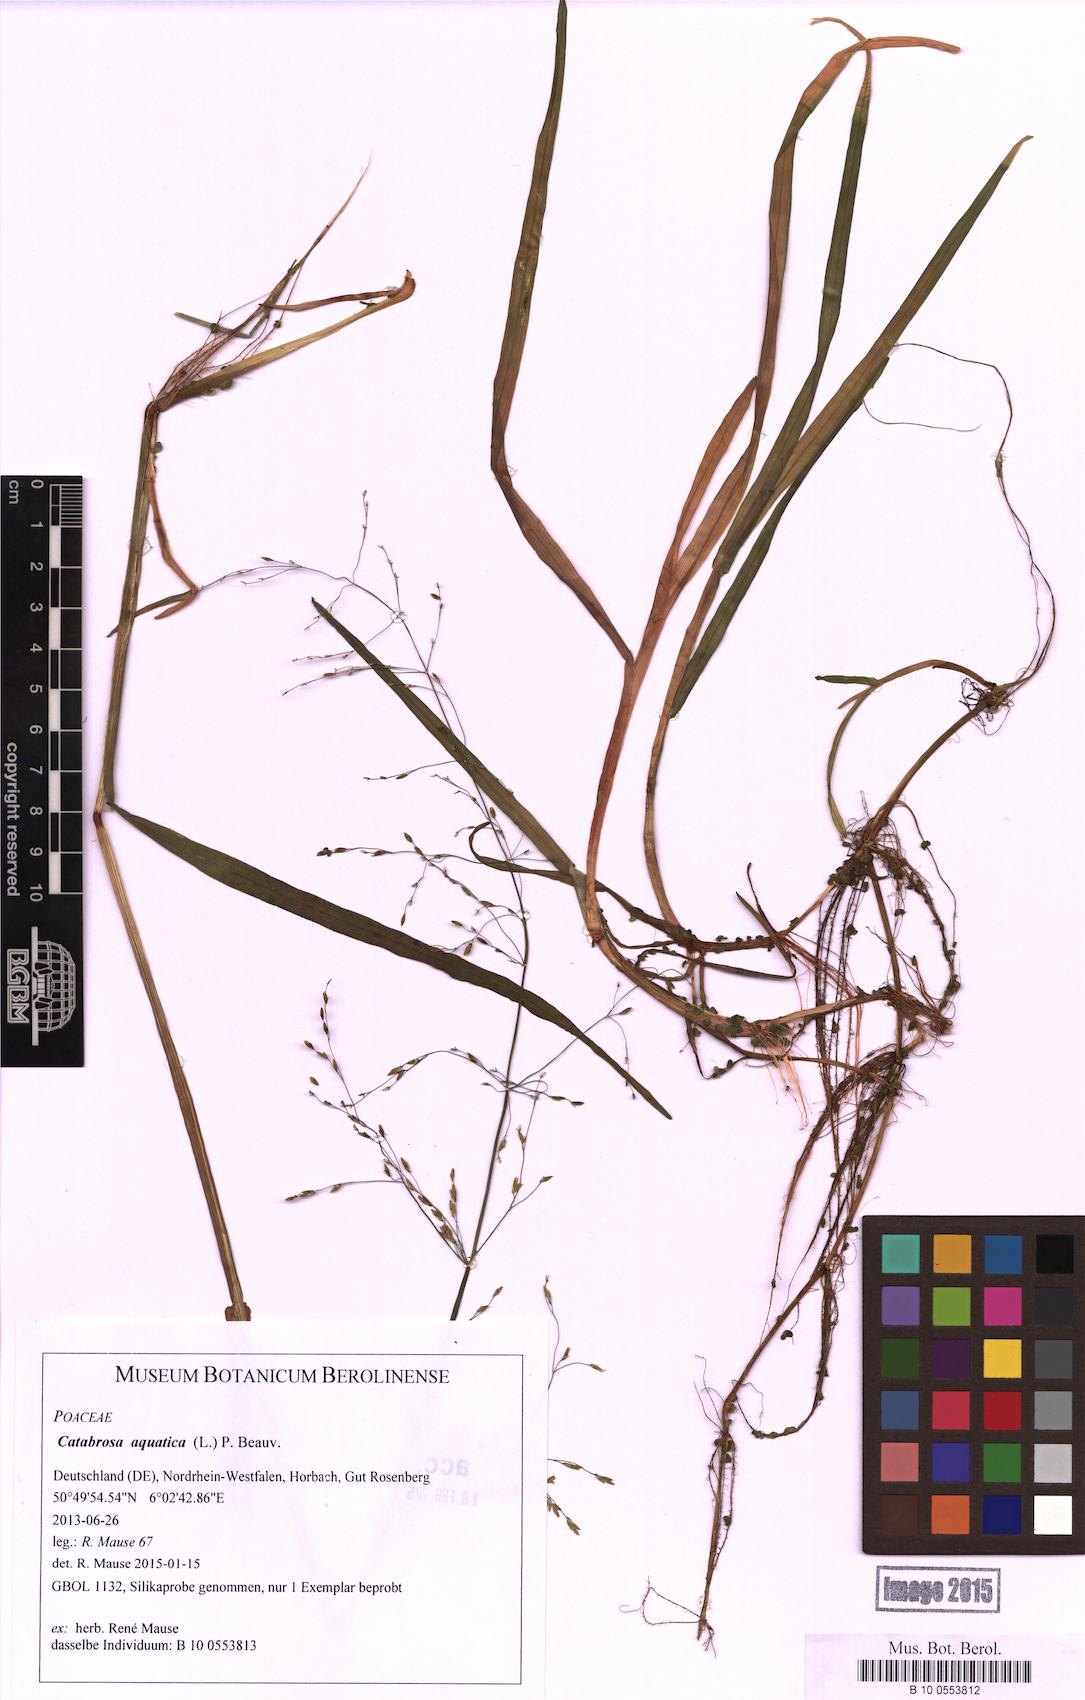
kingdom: Plantae
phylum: Tracheophyta
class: Liliopsida
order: Poales
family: Poaceae
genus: Catabrosa
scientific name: Catabrosa aquatica
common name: Whorl-grass
